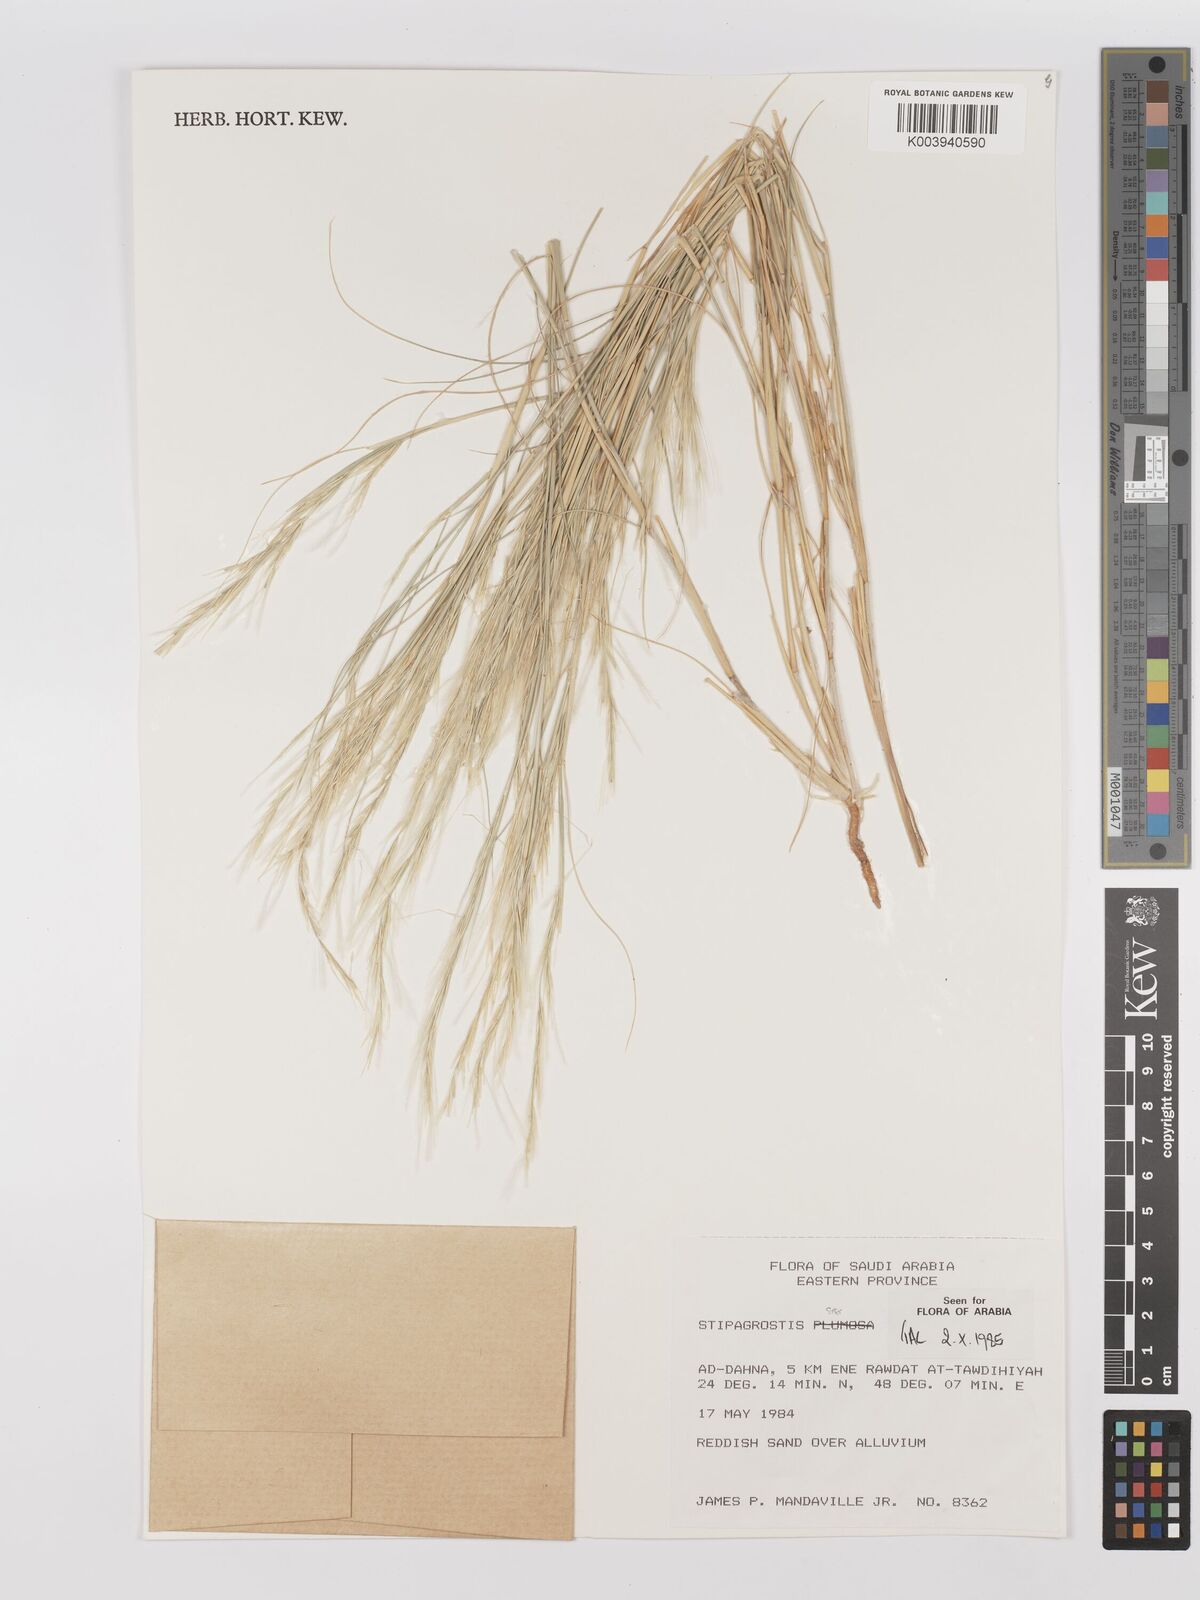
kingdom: Plantae
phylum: Tracheophyta
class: Liliopsida
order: Poales
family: Poaceae
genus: Stipagrostis
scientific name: Stipagrostis plumosa
